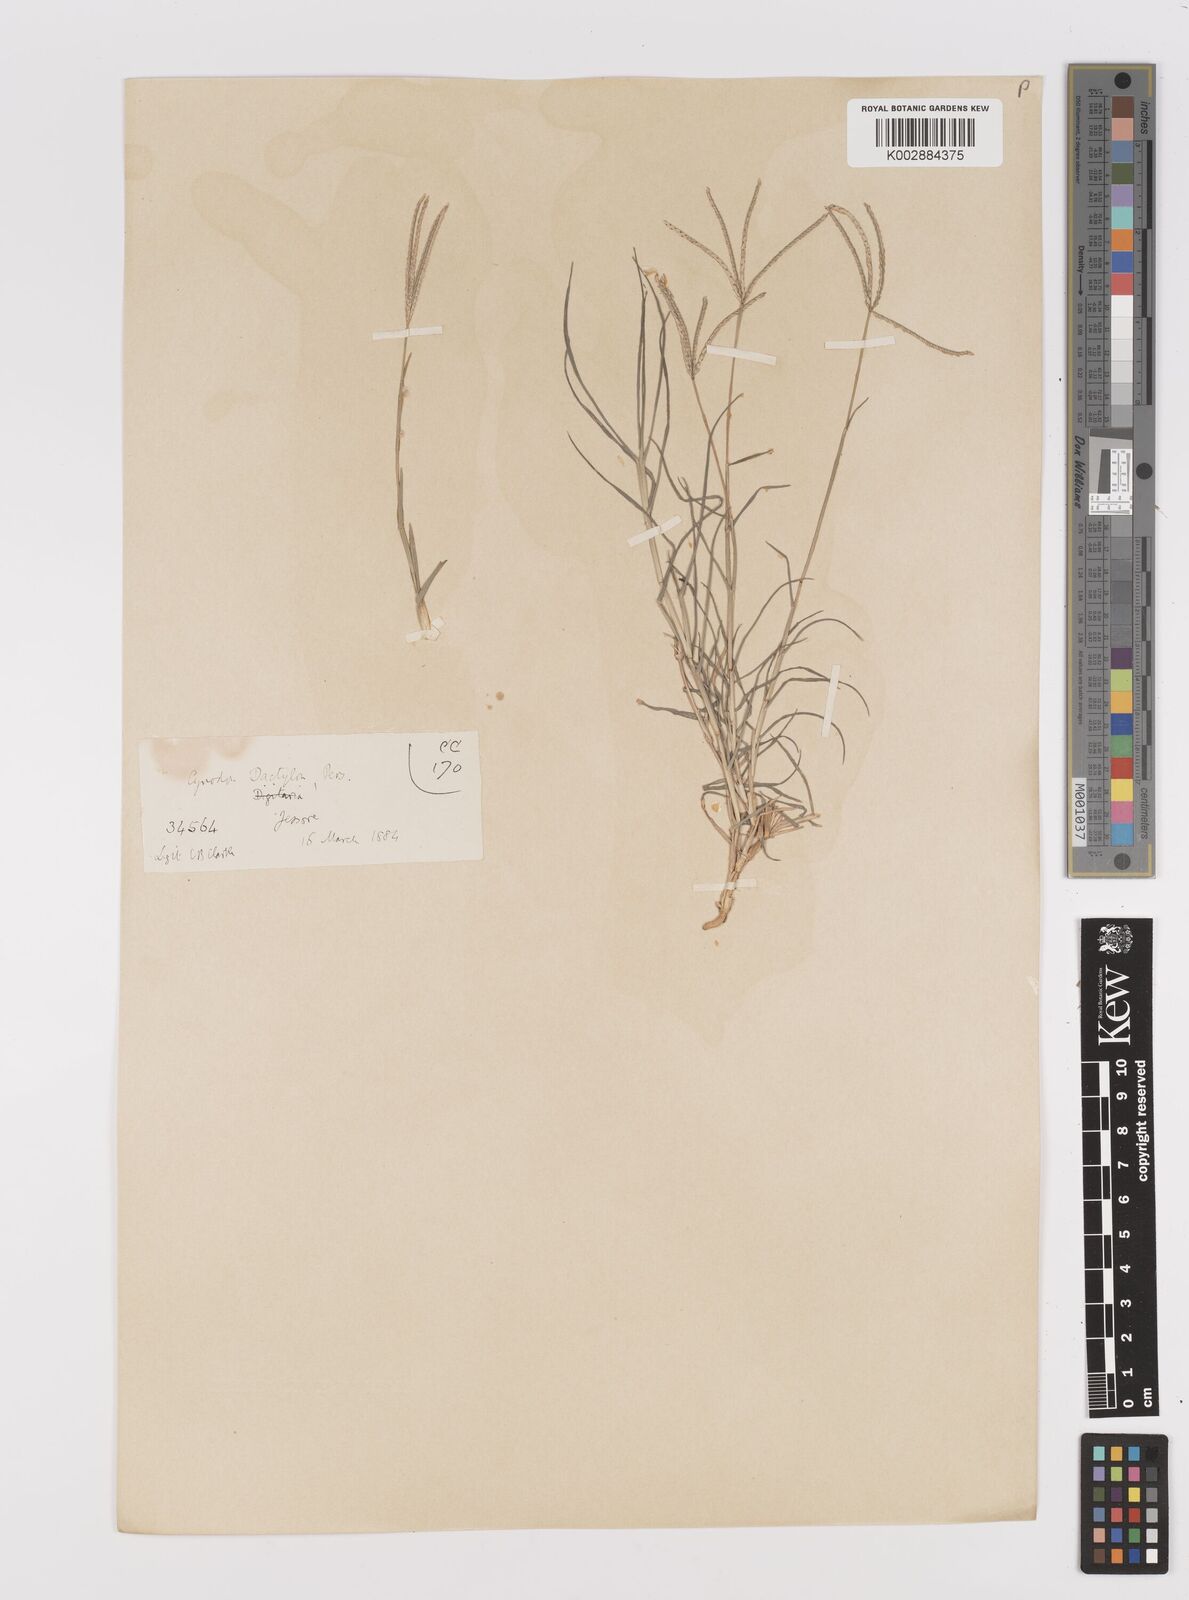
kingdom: Plantae
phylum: Tracheophyta
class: Liliopsida
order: Poales
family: Poaceae
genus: Cynodon
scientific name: Cynodon dactylon
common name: Bermuda grass
